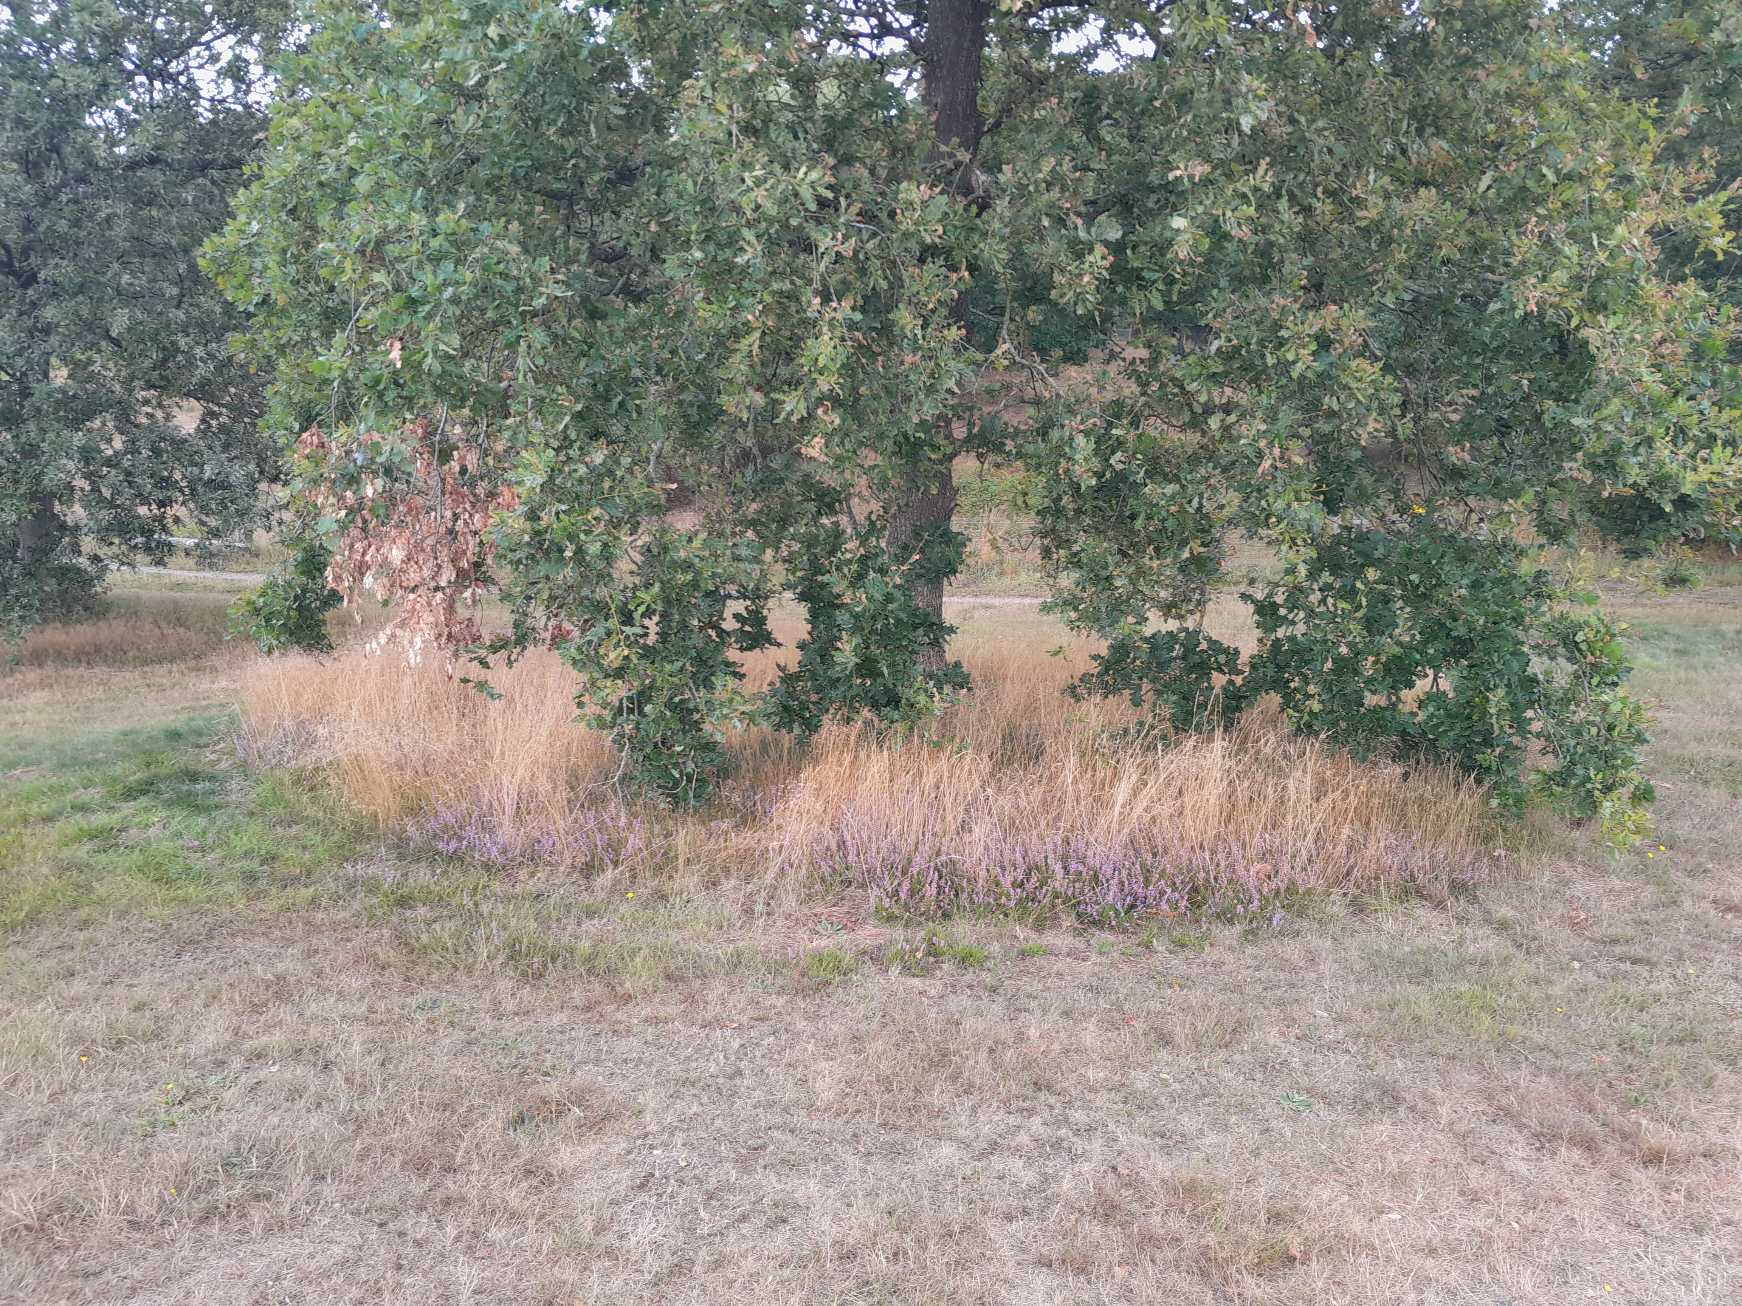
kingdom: Plantae
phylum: Tracheophyta
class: Magnoliopsida
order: Ericales
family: Ericaceae
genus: Calluna
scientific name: Calluna vulgaris
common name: Hedelyng
